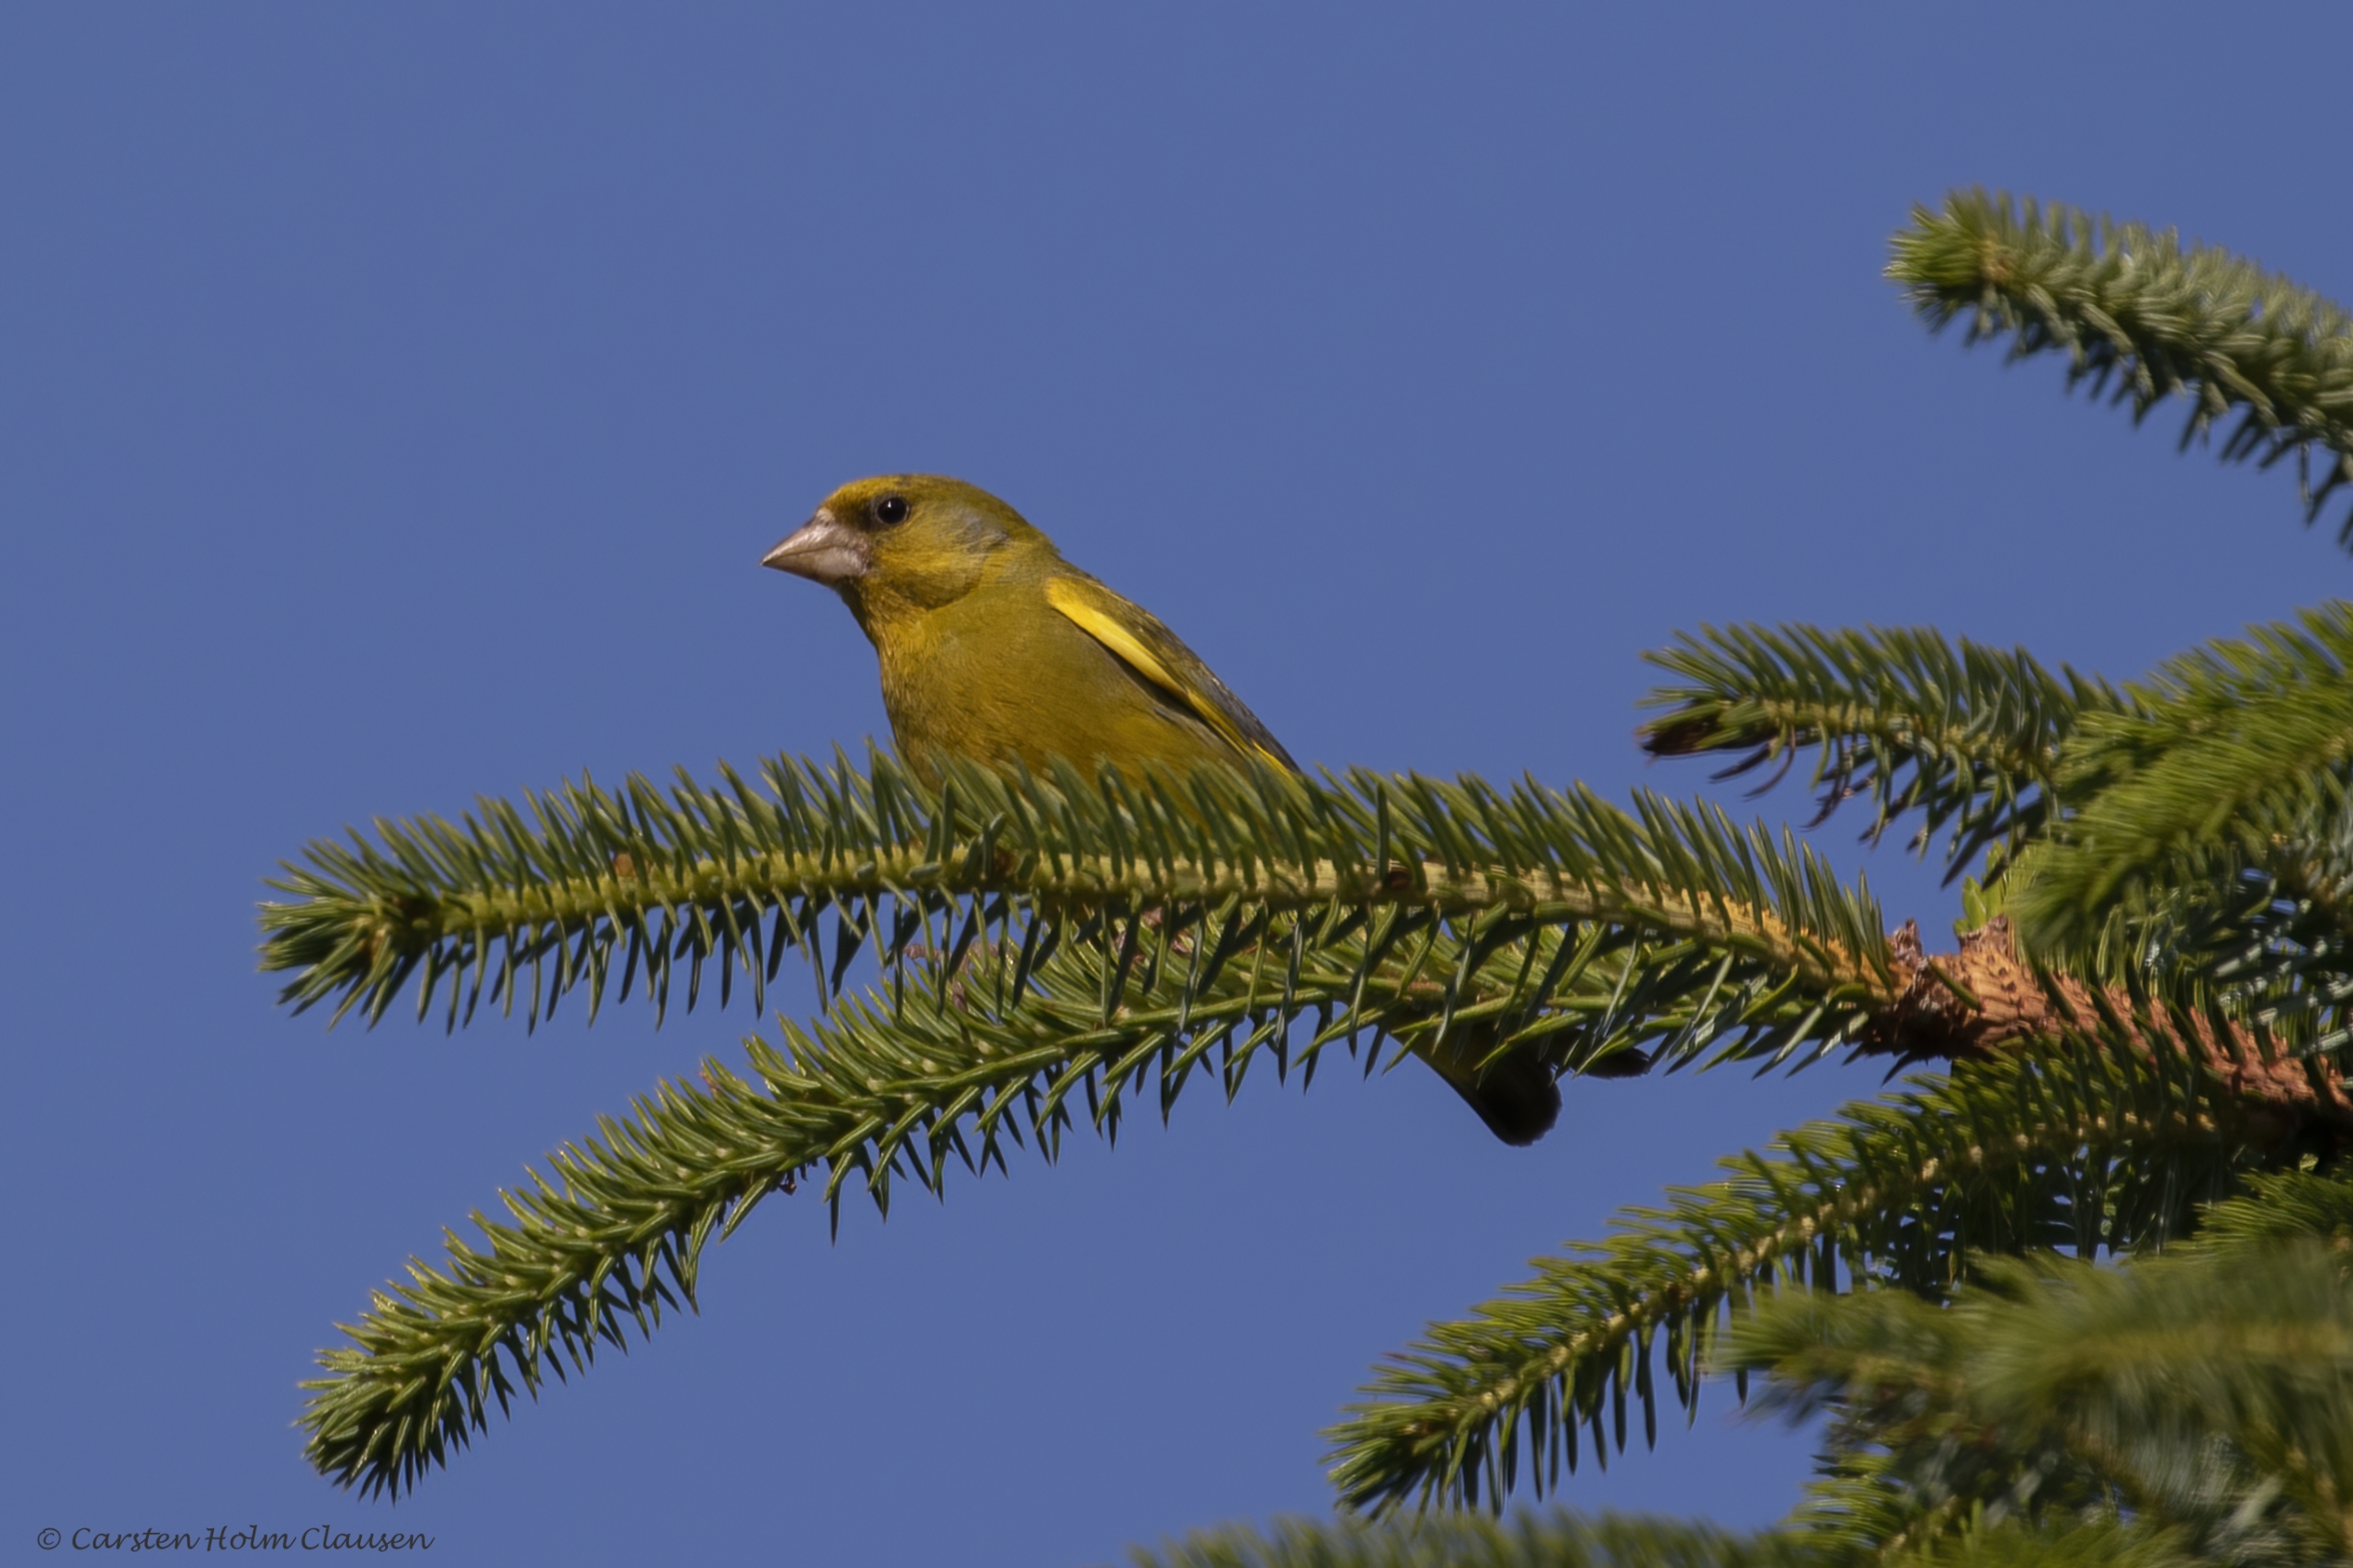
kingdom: Plantae
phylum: Tracheophyta
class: Liliopsida
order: Poales
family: Poaceae
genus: Chloris
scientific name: Chloris chloris
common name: Grønirisk
